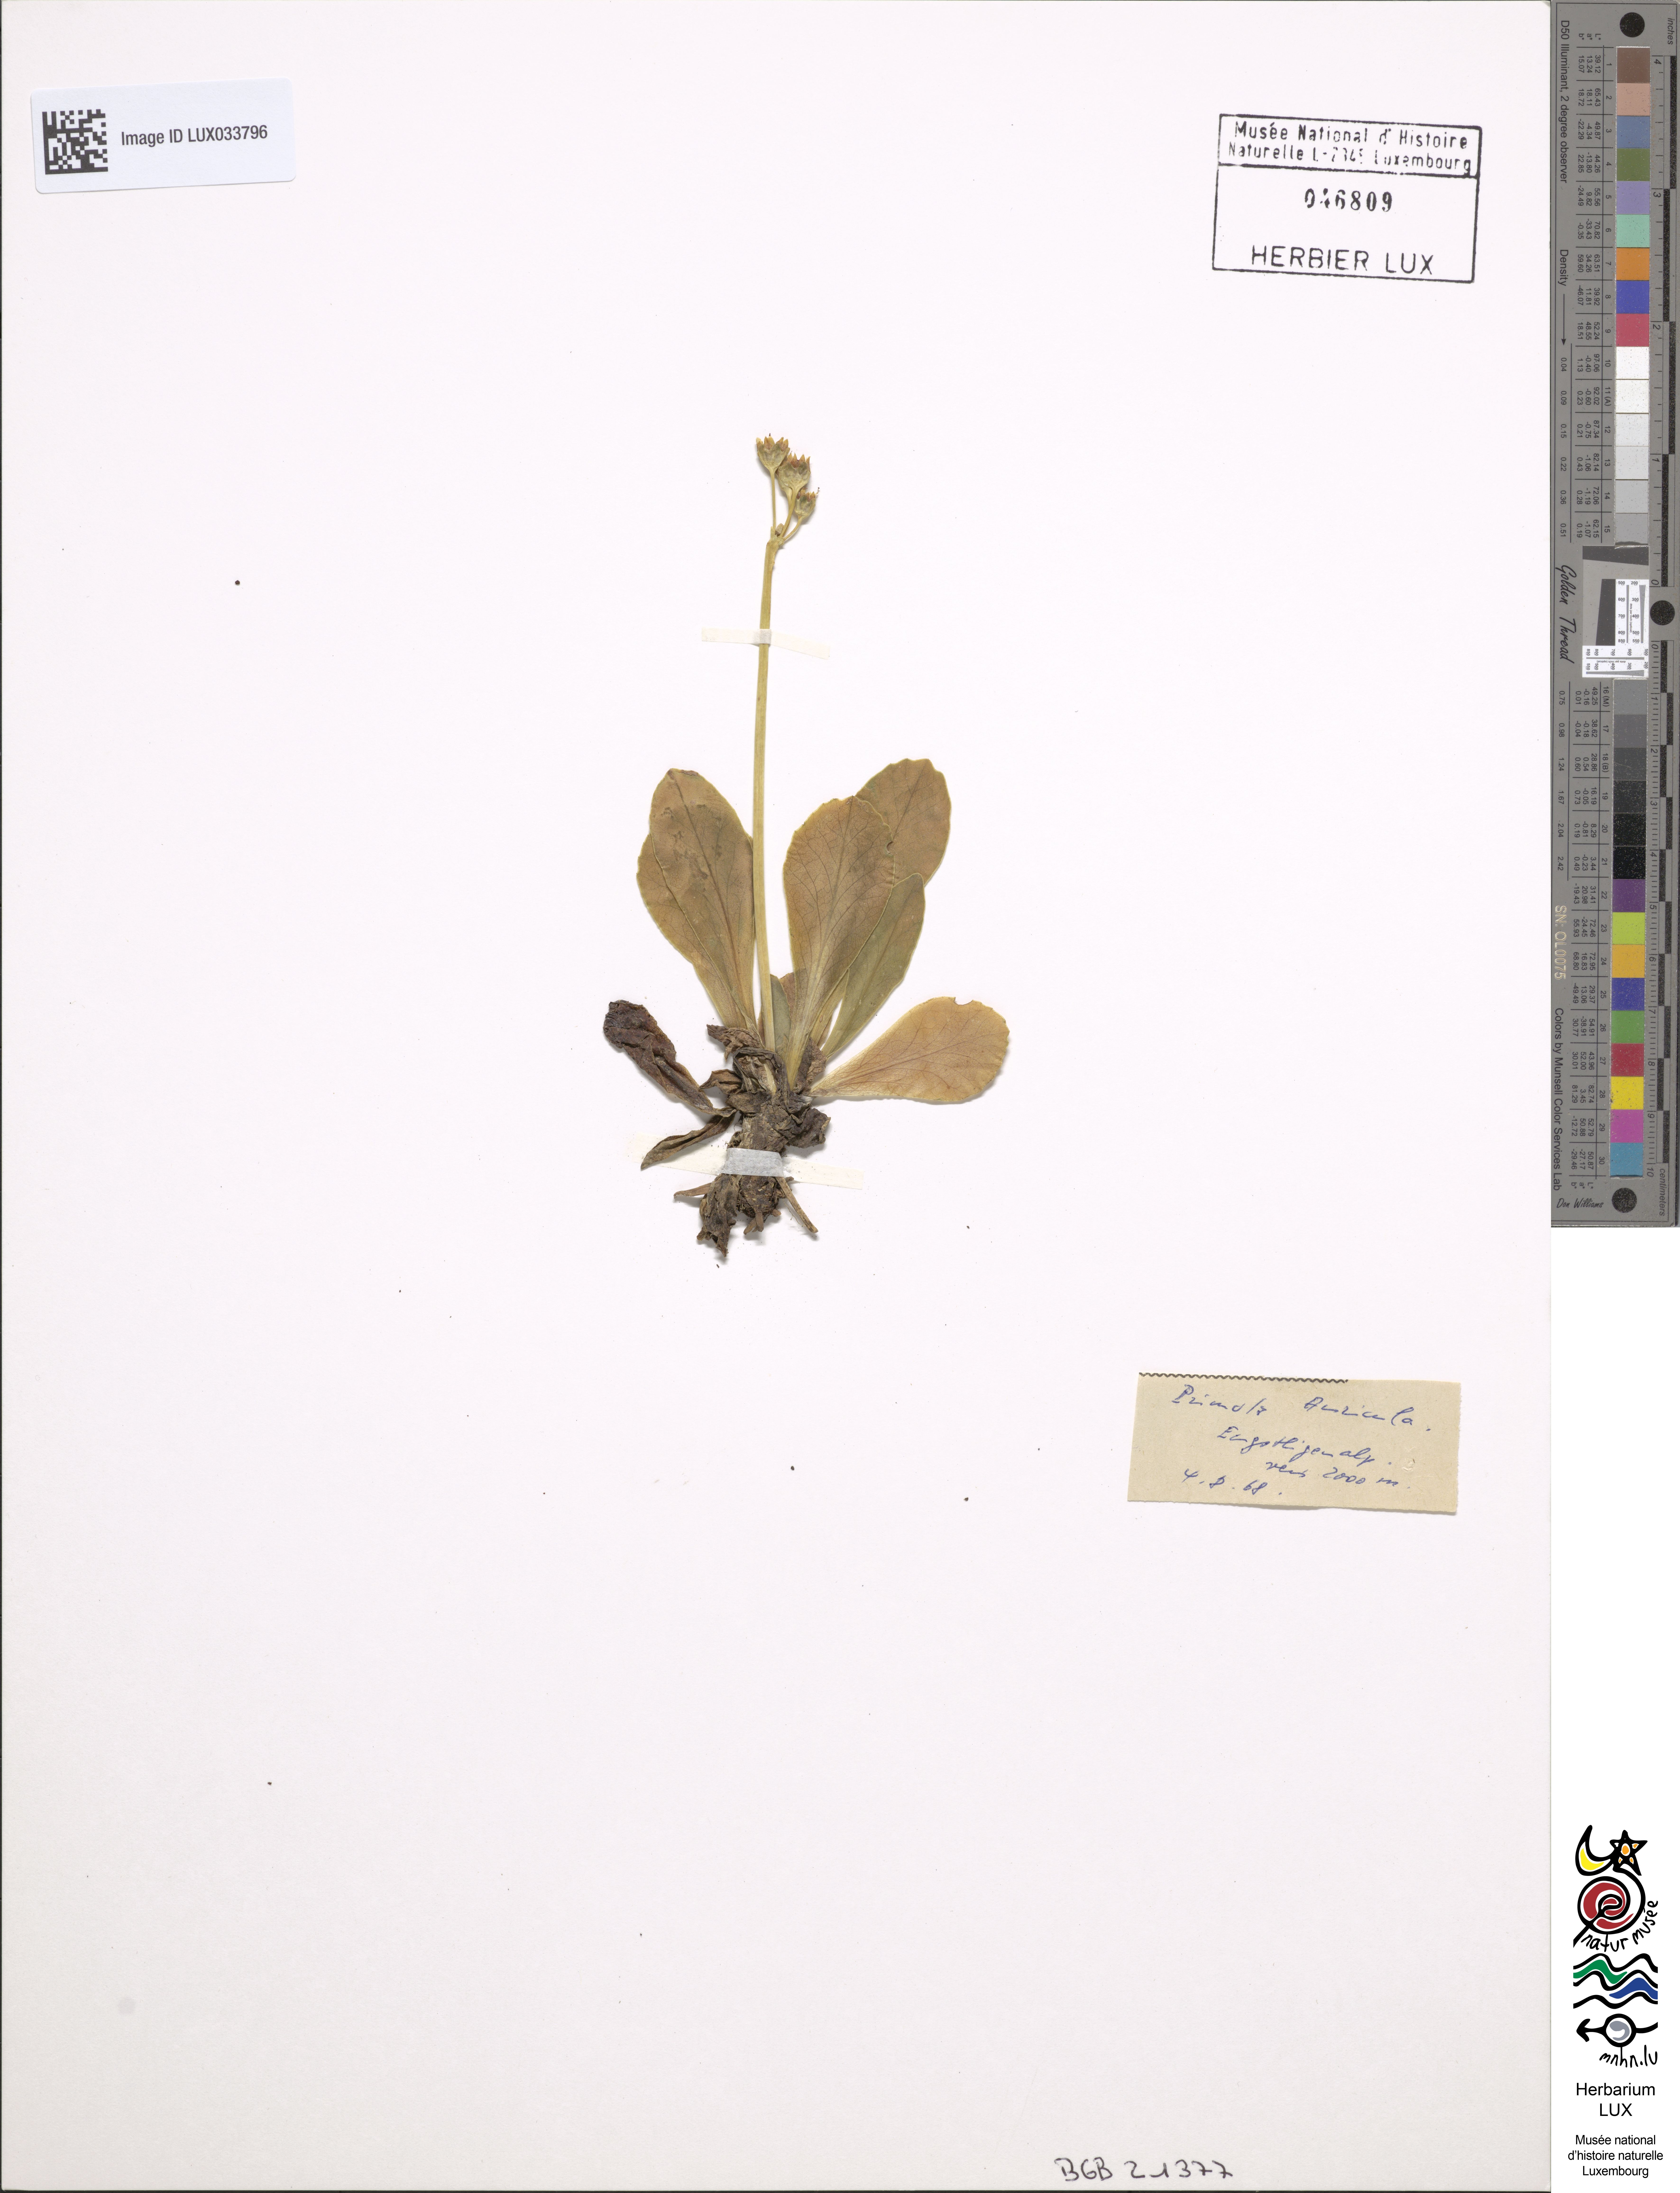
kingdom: Plantae
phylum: Tracheophyta
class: Magnoliopsida
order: Ericales
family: Primulaceae
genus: Primula
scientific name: Primula auricula
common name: Auricula
